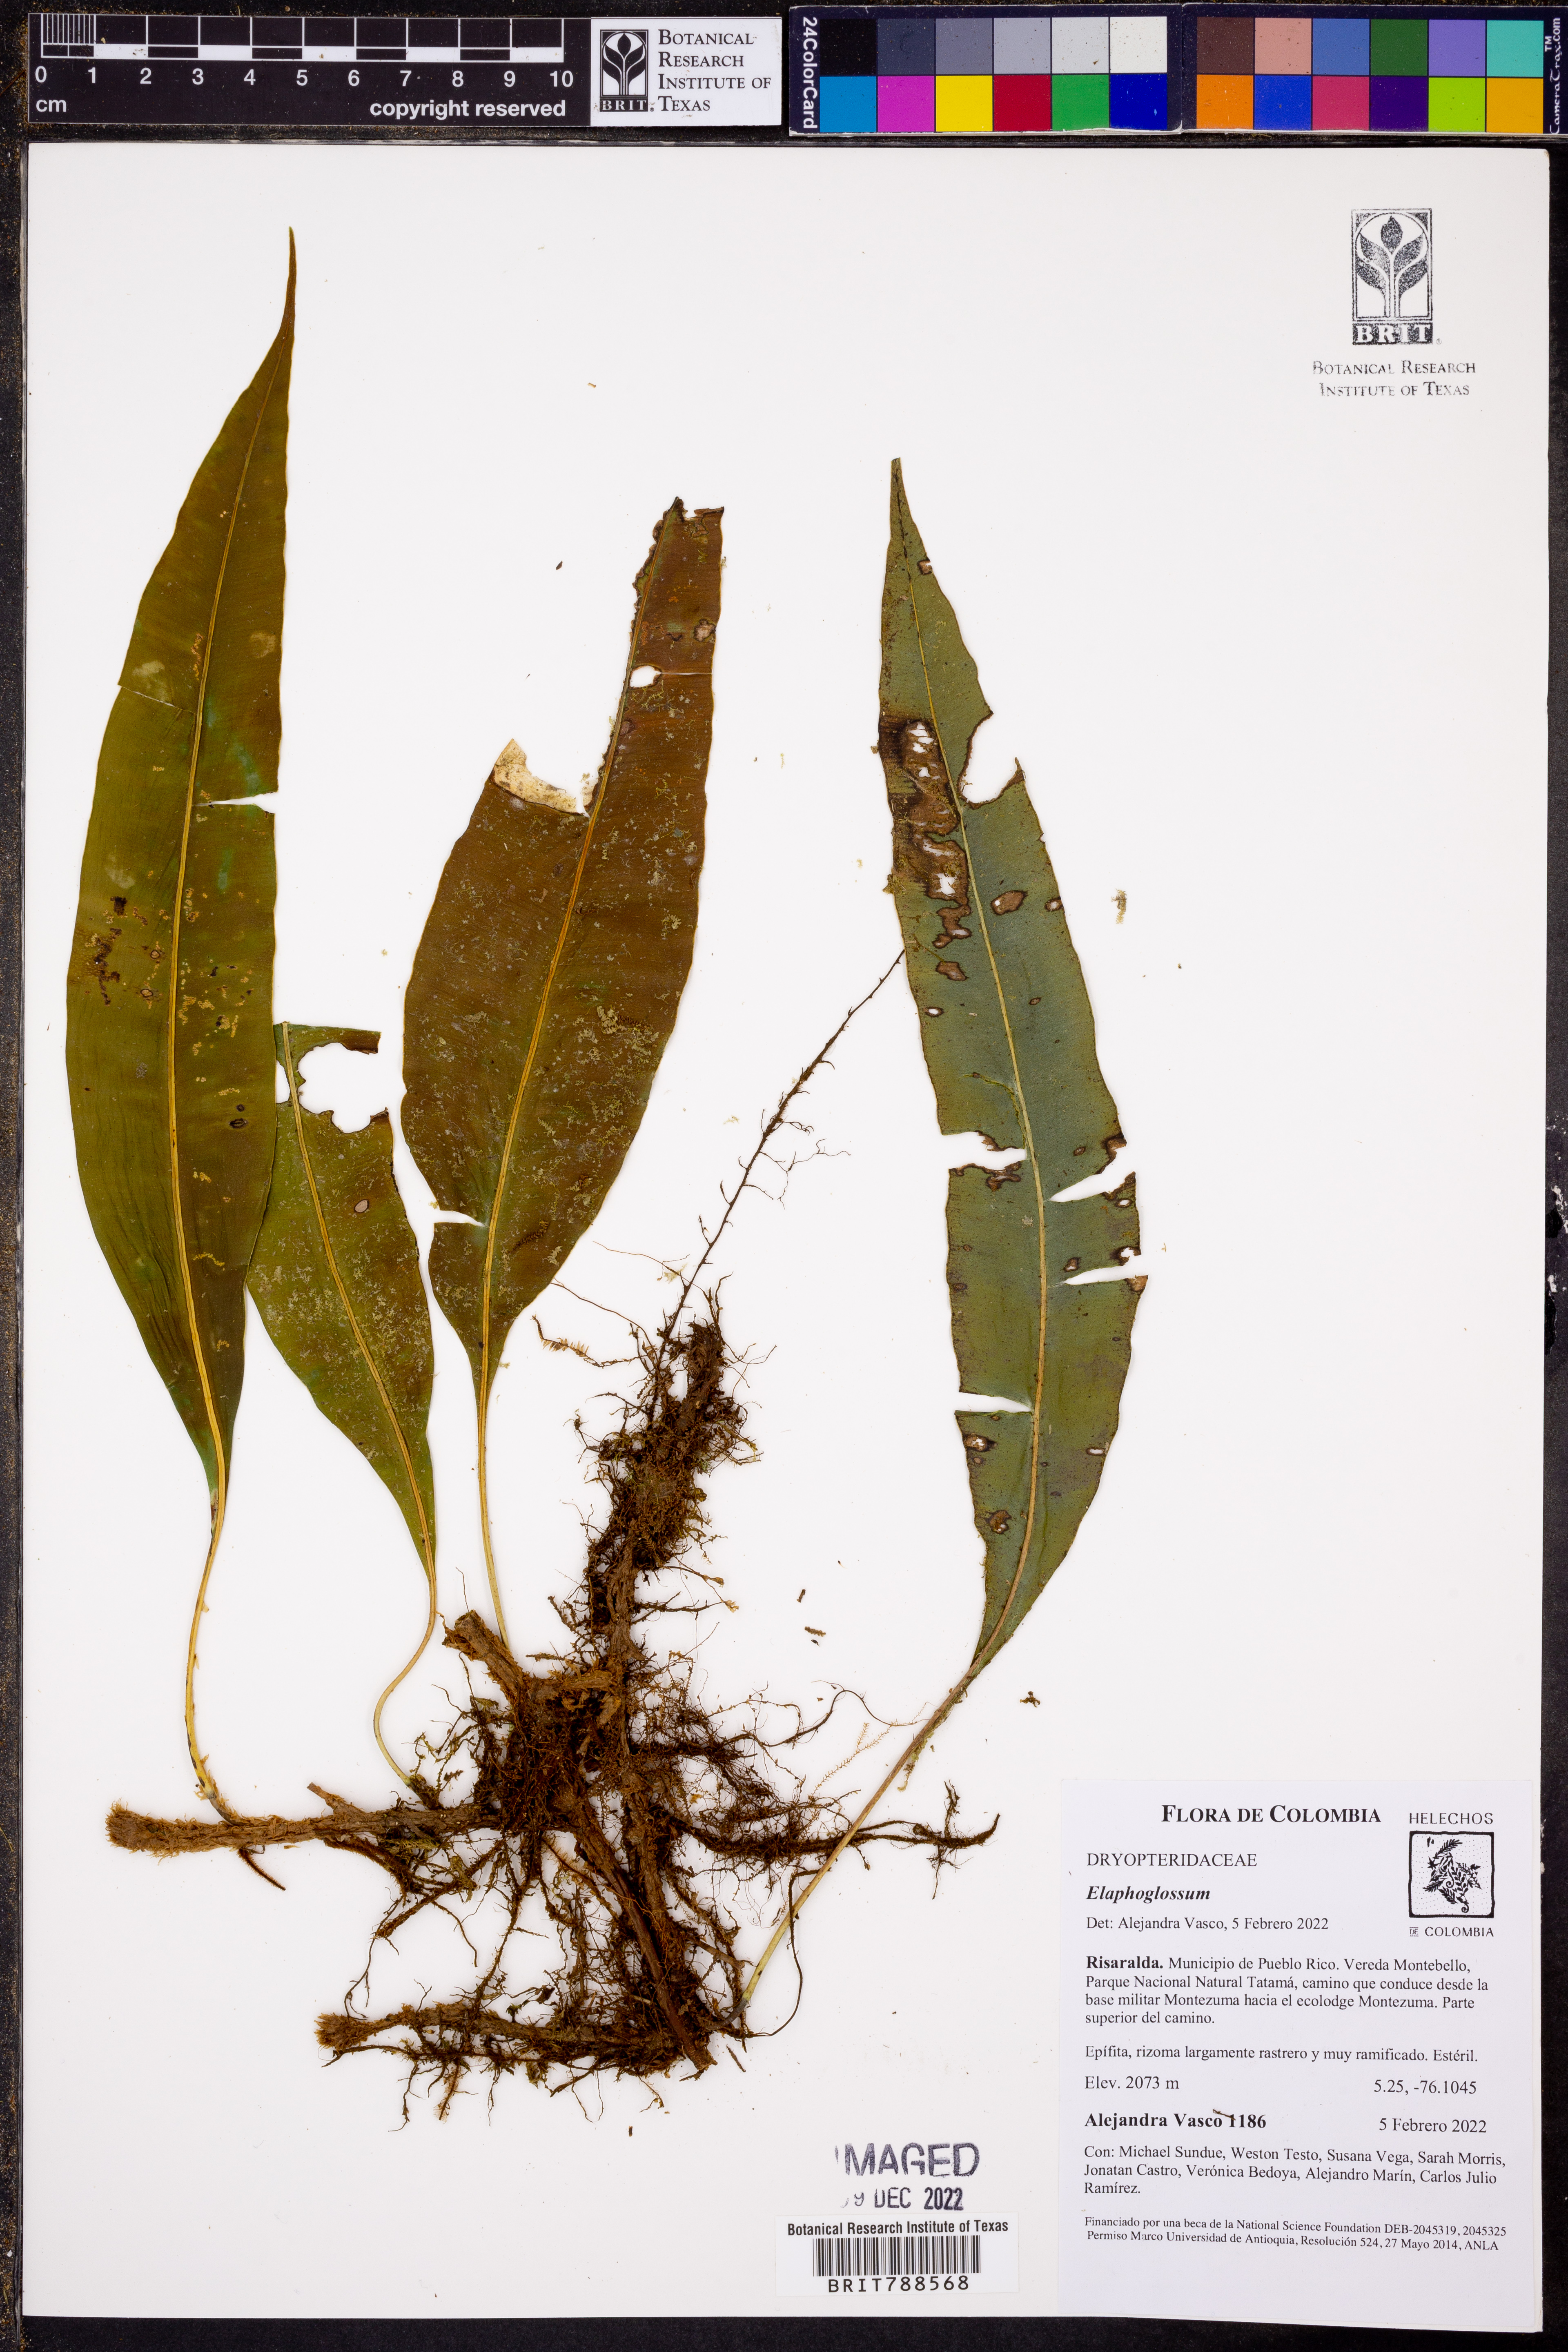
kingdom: Plantae
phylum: Tracheophyta
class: Polypodiopsida
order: Polypodiales
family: Dryopteridaceae
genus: Elaphoglossum
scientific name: Elaphoglossum
